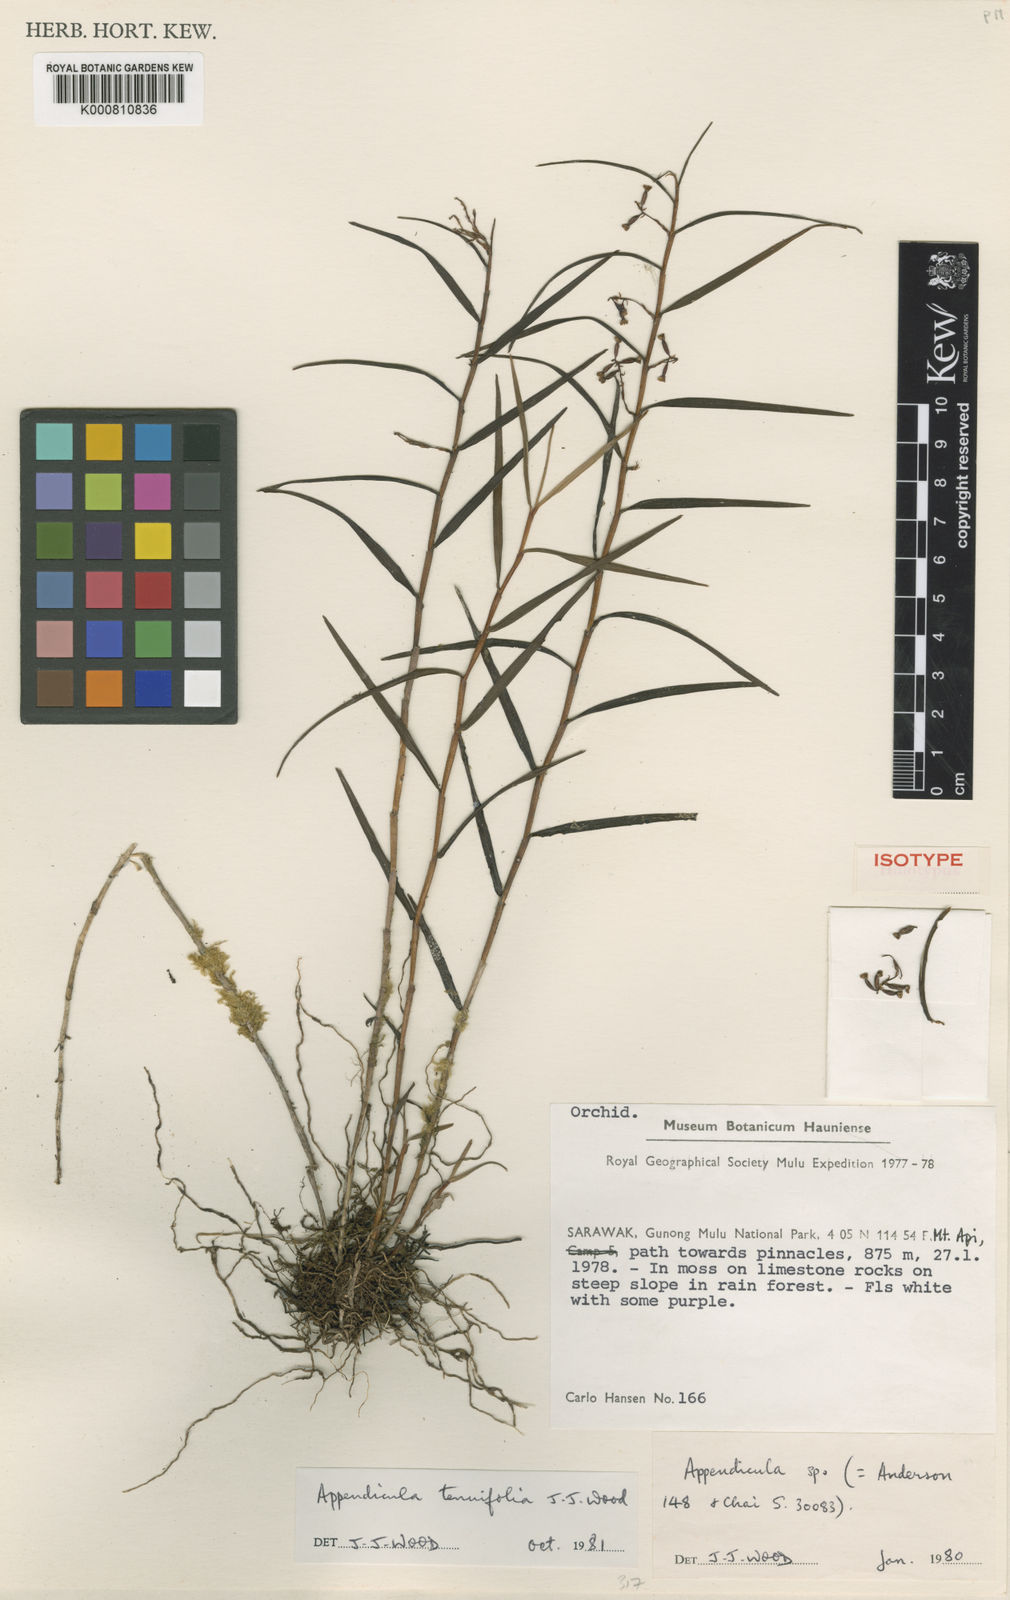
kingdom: Plantae
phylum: Tracheophyta
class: Liliopsida
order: Asparagales
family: Orchidaceae
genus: Appendicula
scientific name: Appendicula tenuifolia
